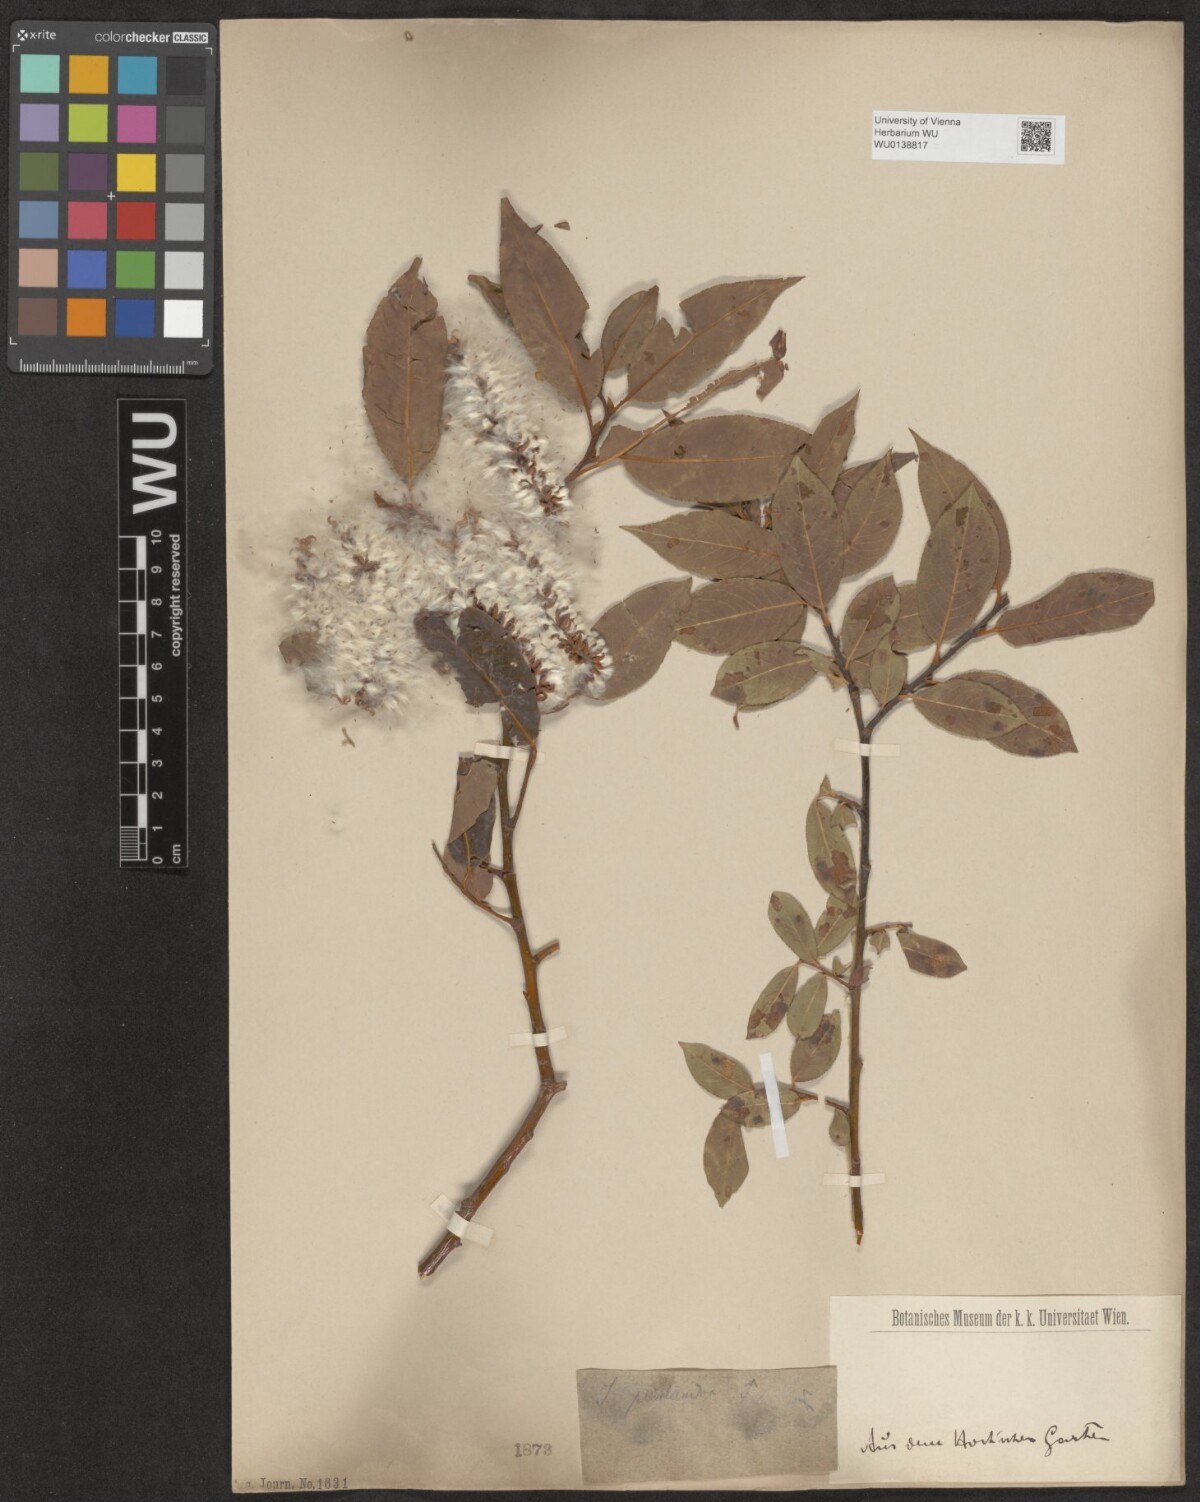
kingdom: Plantae
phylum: Tracheophyta
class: Magnoliopsida
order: Malpighiales
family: Salicaceae
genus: Salix
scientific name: Salix pentandra
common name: Bay willow
